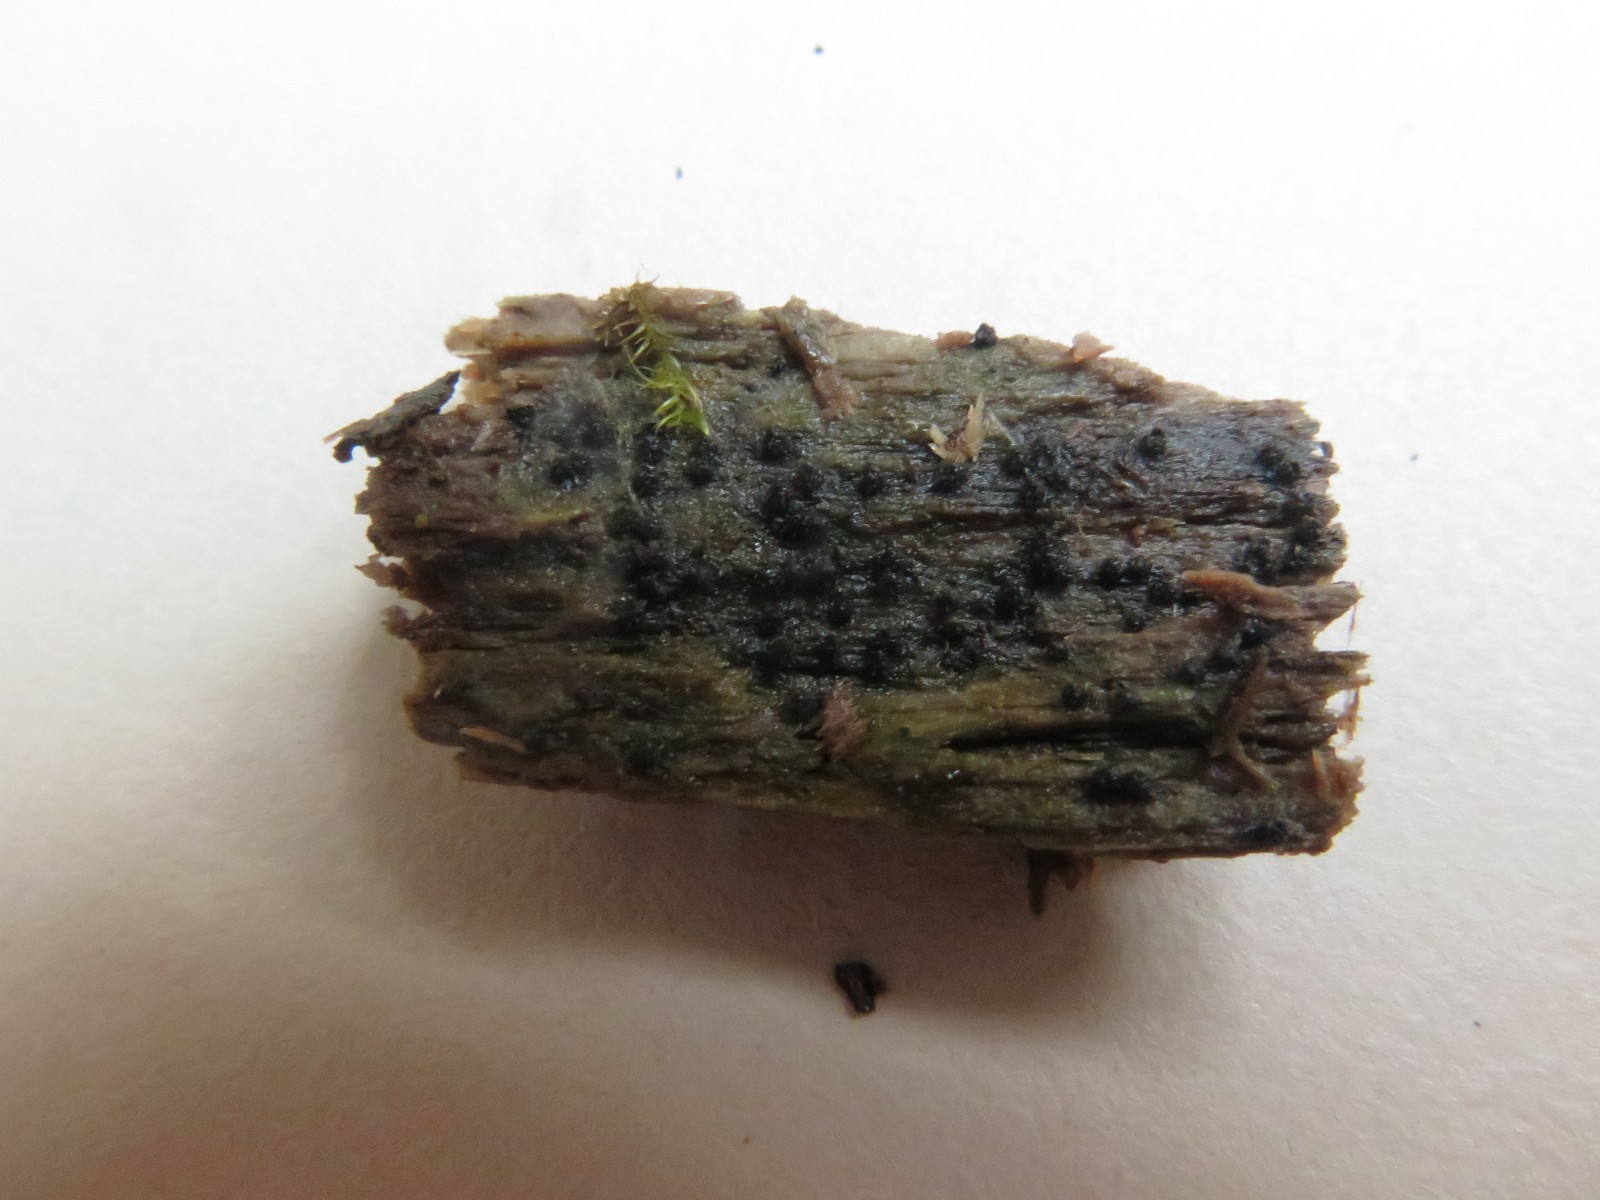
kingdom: Fungi
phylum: Ascomycota
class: Sordariomycetes
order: Sordariales
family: Lasiosphaeridaceae
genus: Lasiosphaeris
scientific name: Lasiosphaeris
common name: kernesvamp
